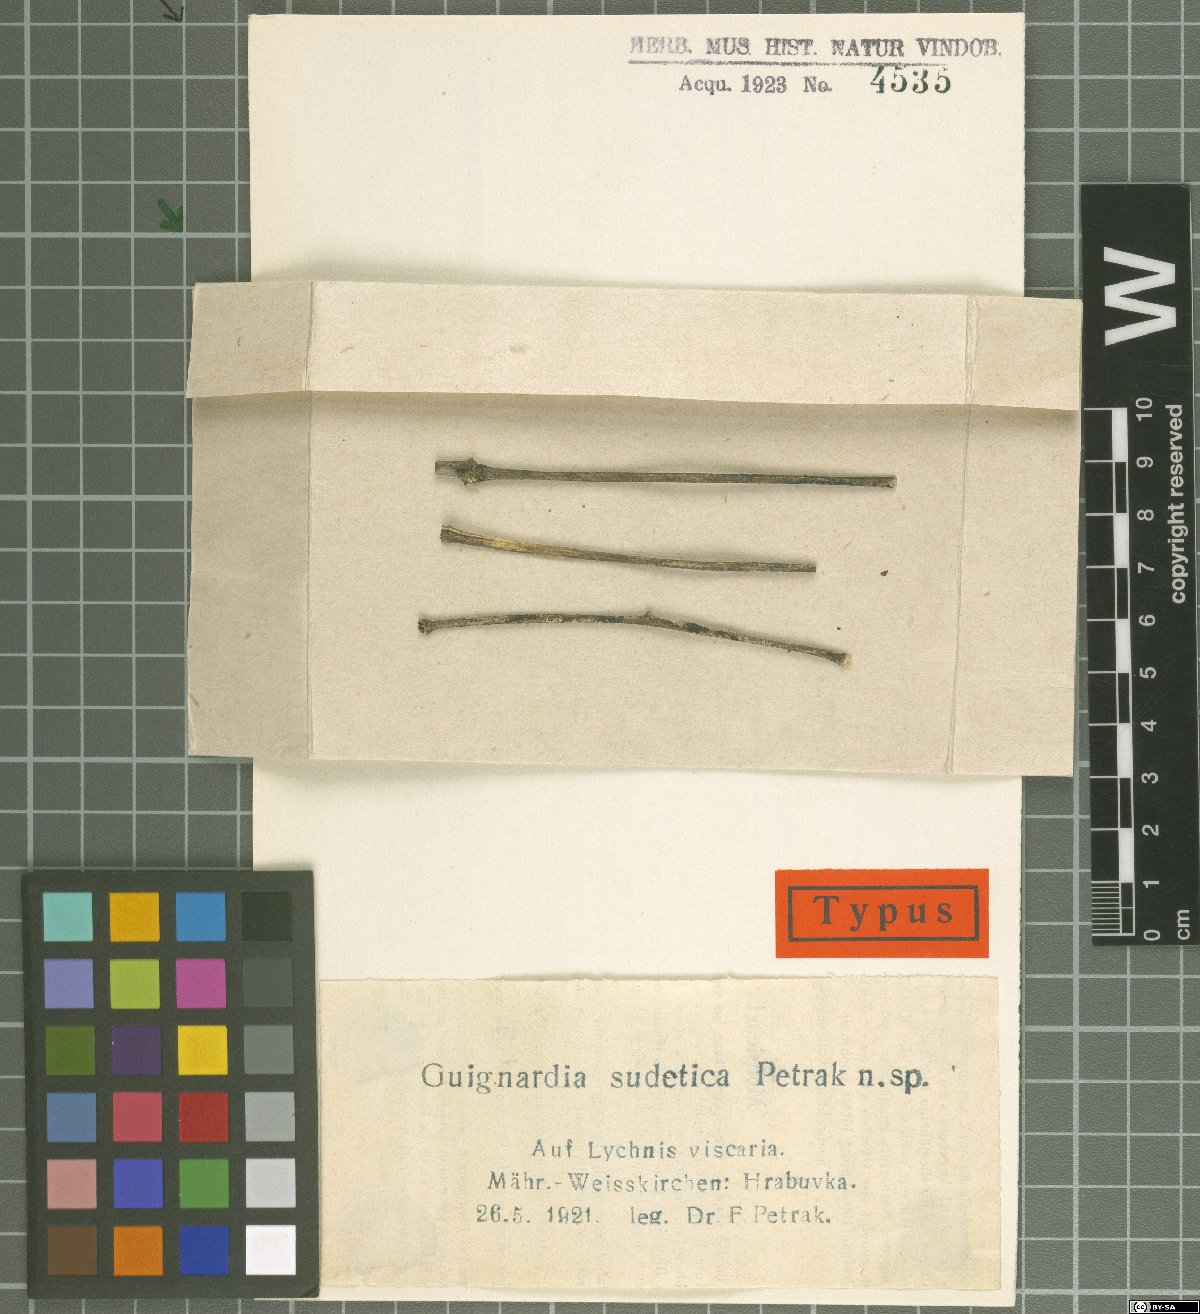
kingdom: Fungi
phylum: Ascomycota
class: Dothideomycetes
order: Botryosphaeriales
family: Phyllostictaceae
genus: Guignardia
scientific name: Guignardia sudetica
